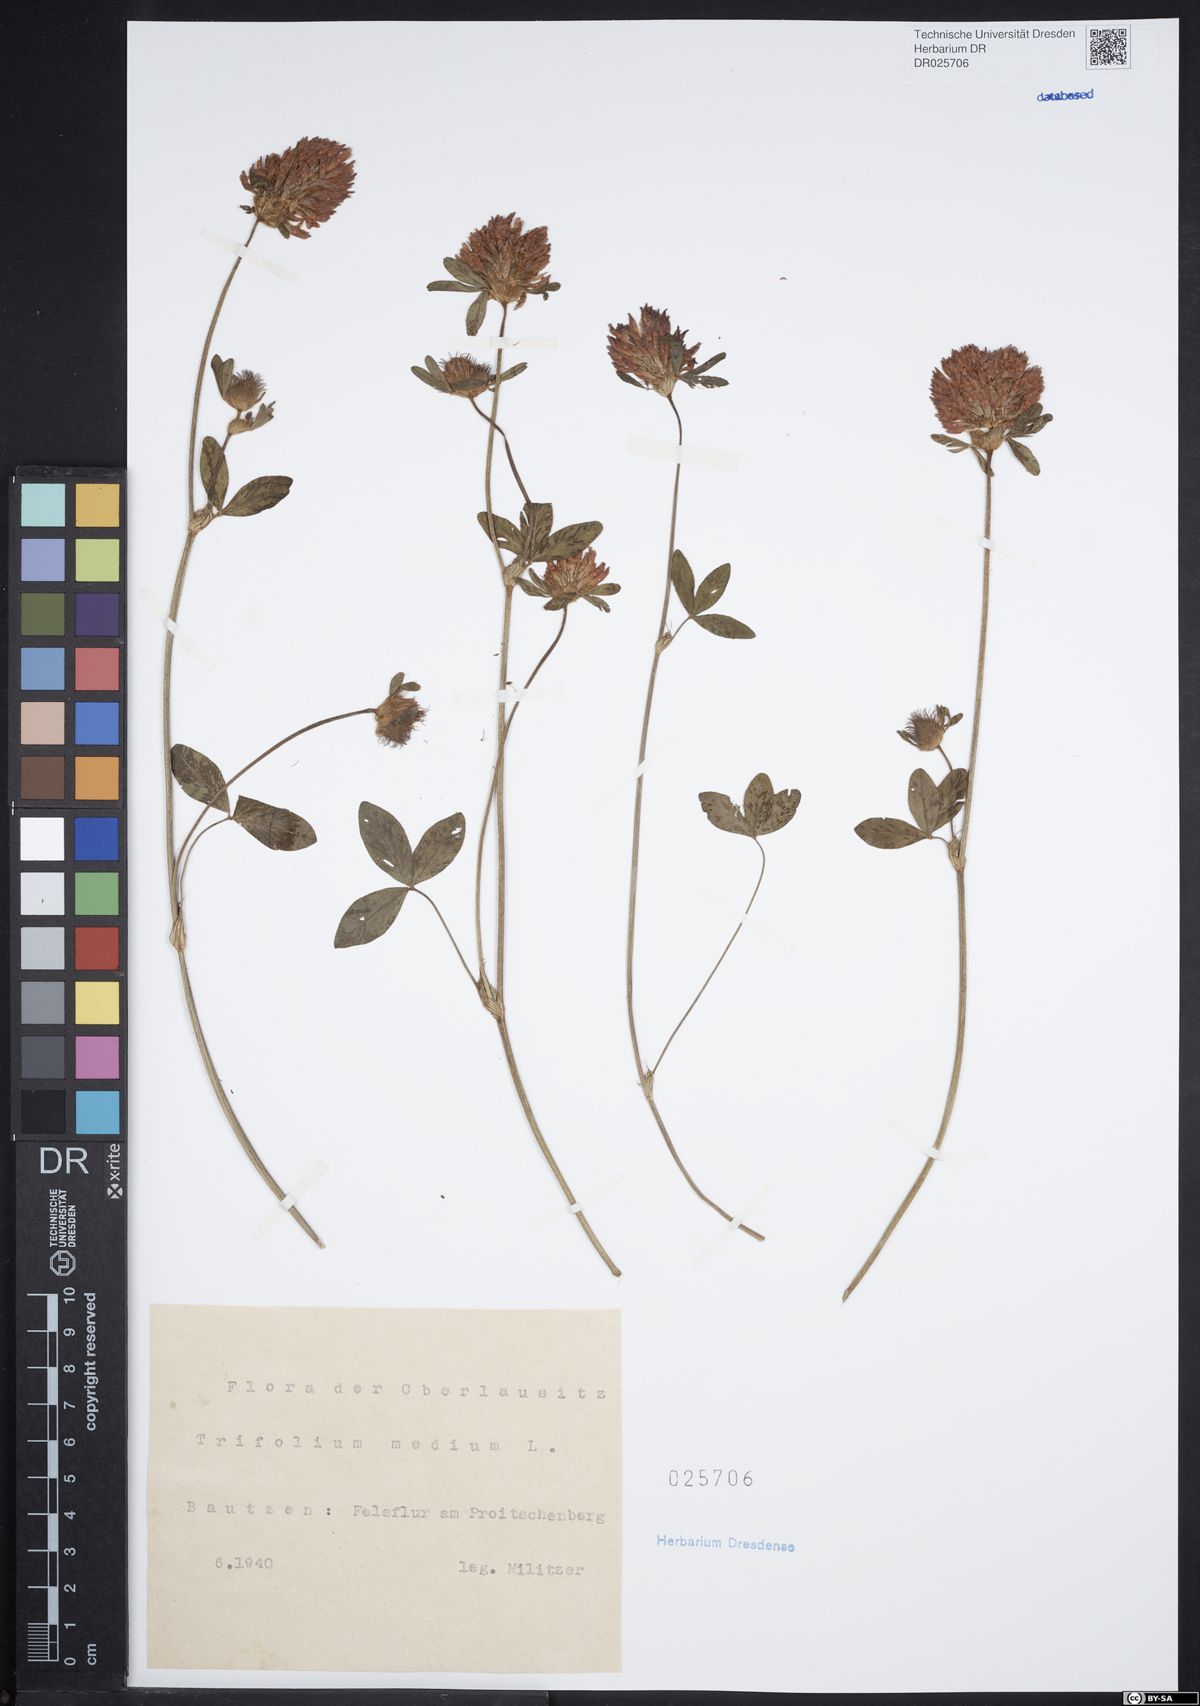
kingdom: Plantae
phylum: Tracheophyta
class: Magnoliopsida
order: Fabales
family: Fabaceae
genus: Trifolium
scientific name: Trifolium medium
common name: Zigzag clover
